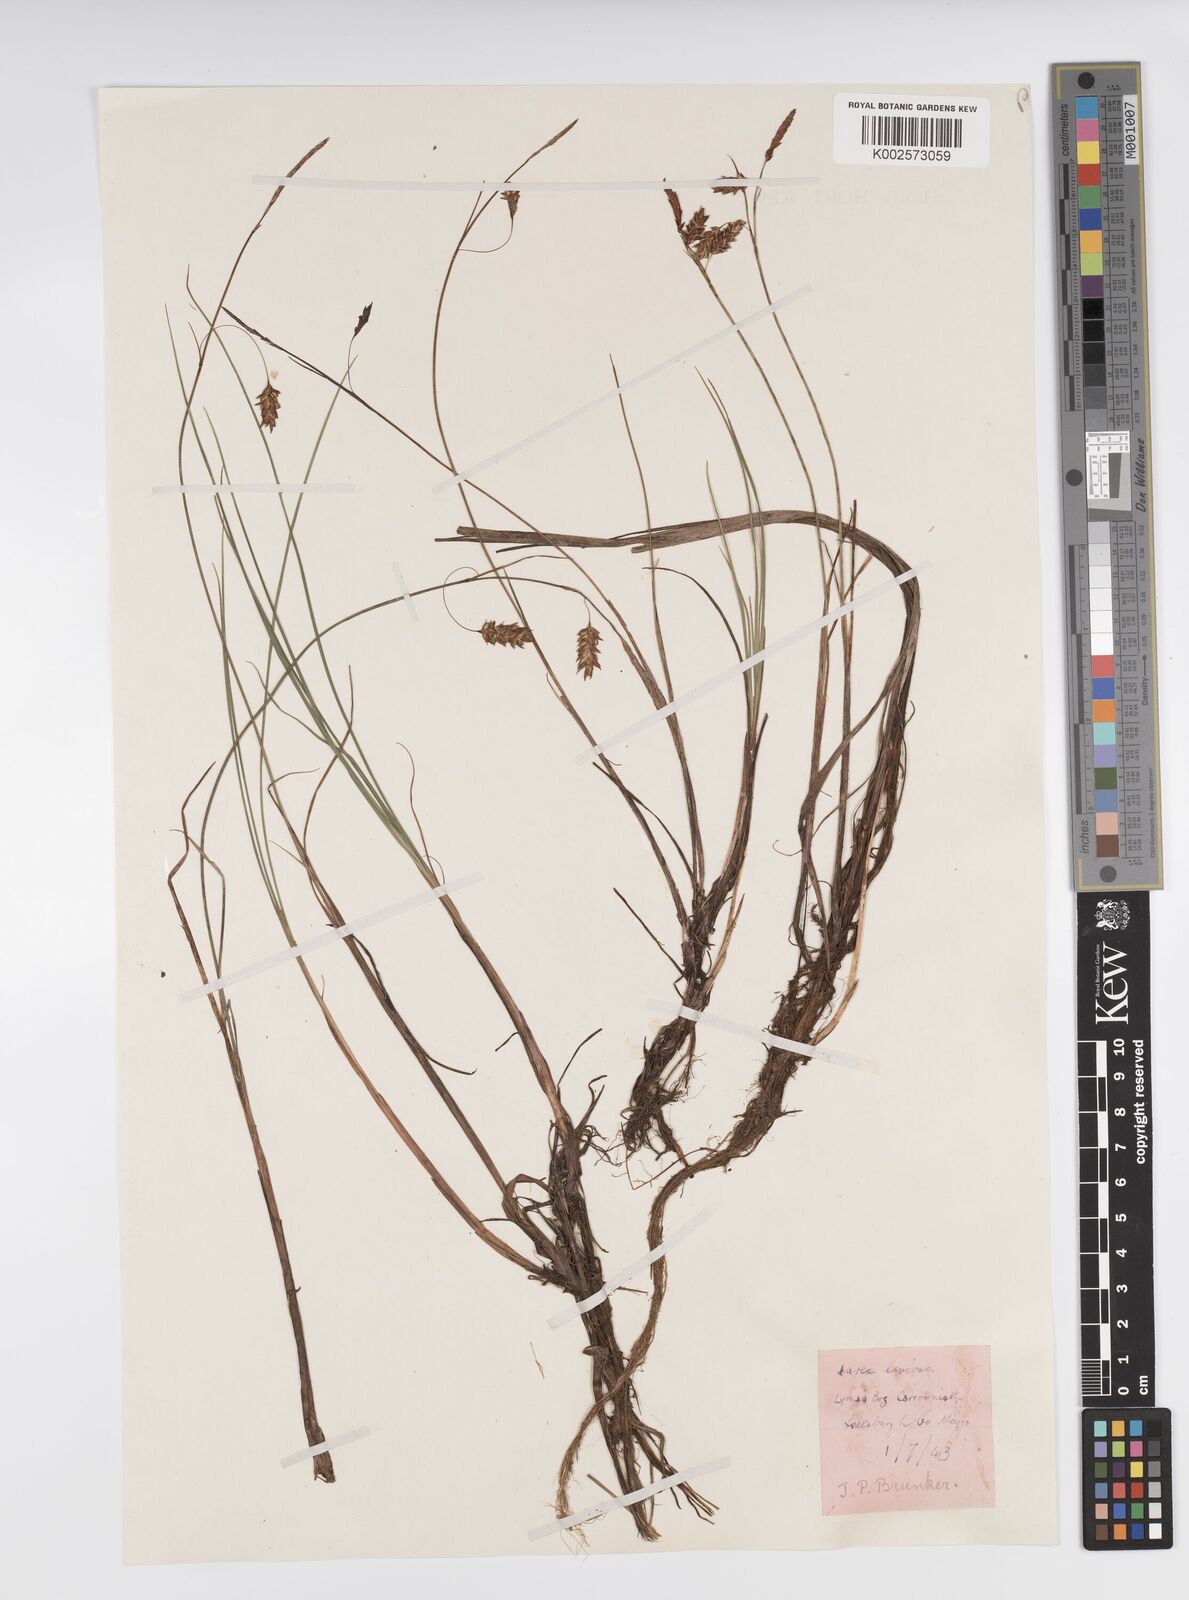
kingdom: Plantae
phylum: Tracheophyta
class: Liliopsida
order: Poales
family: Cyperaceae
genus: Carex
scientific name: Carex limosa
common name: Bog sedge
